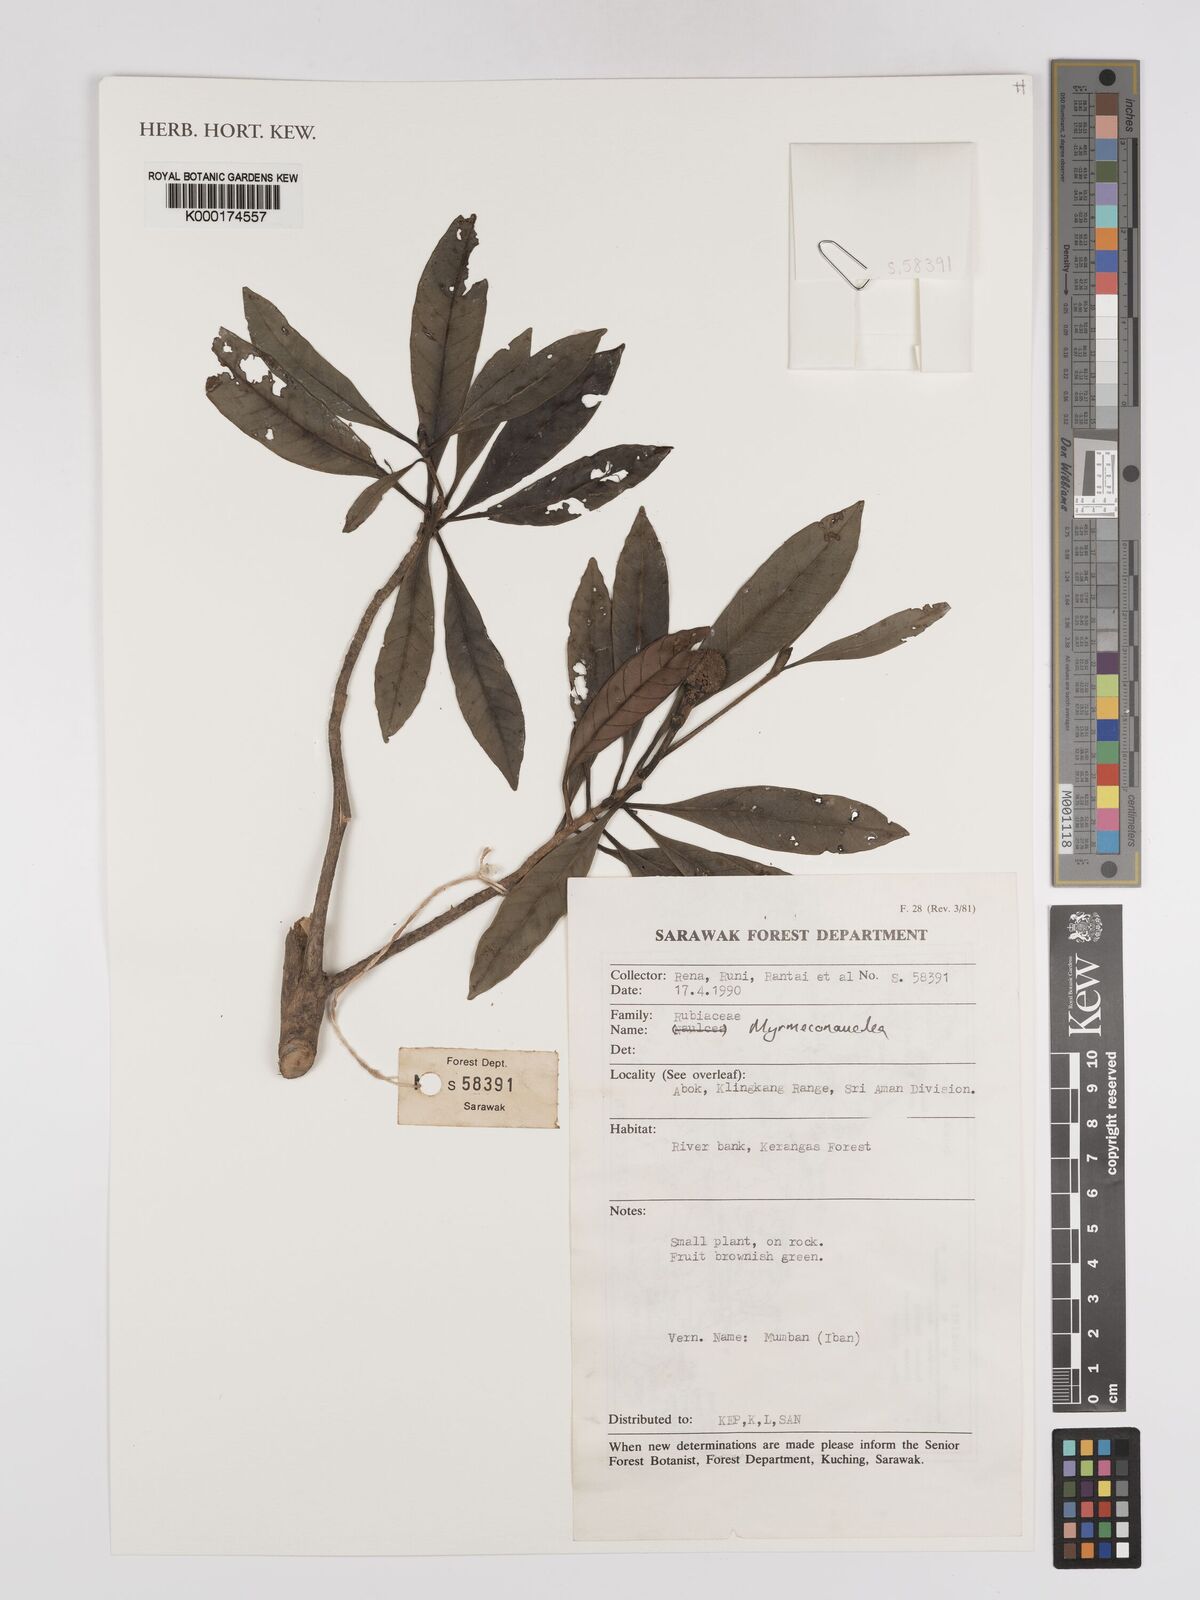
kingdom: Plantae
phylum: Tracheophyta
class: Magnoliopsida
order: Gentianales
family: Rubiaceae
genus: Myrmeconauclea
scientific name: Myrmeconauclea
